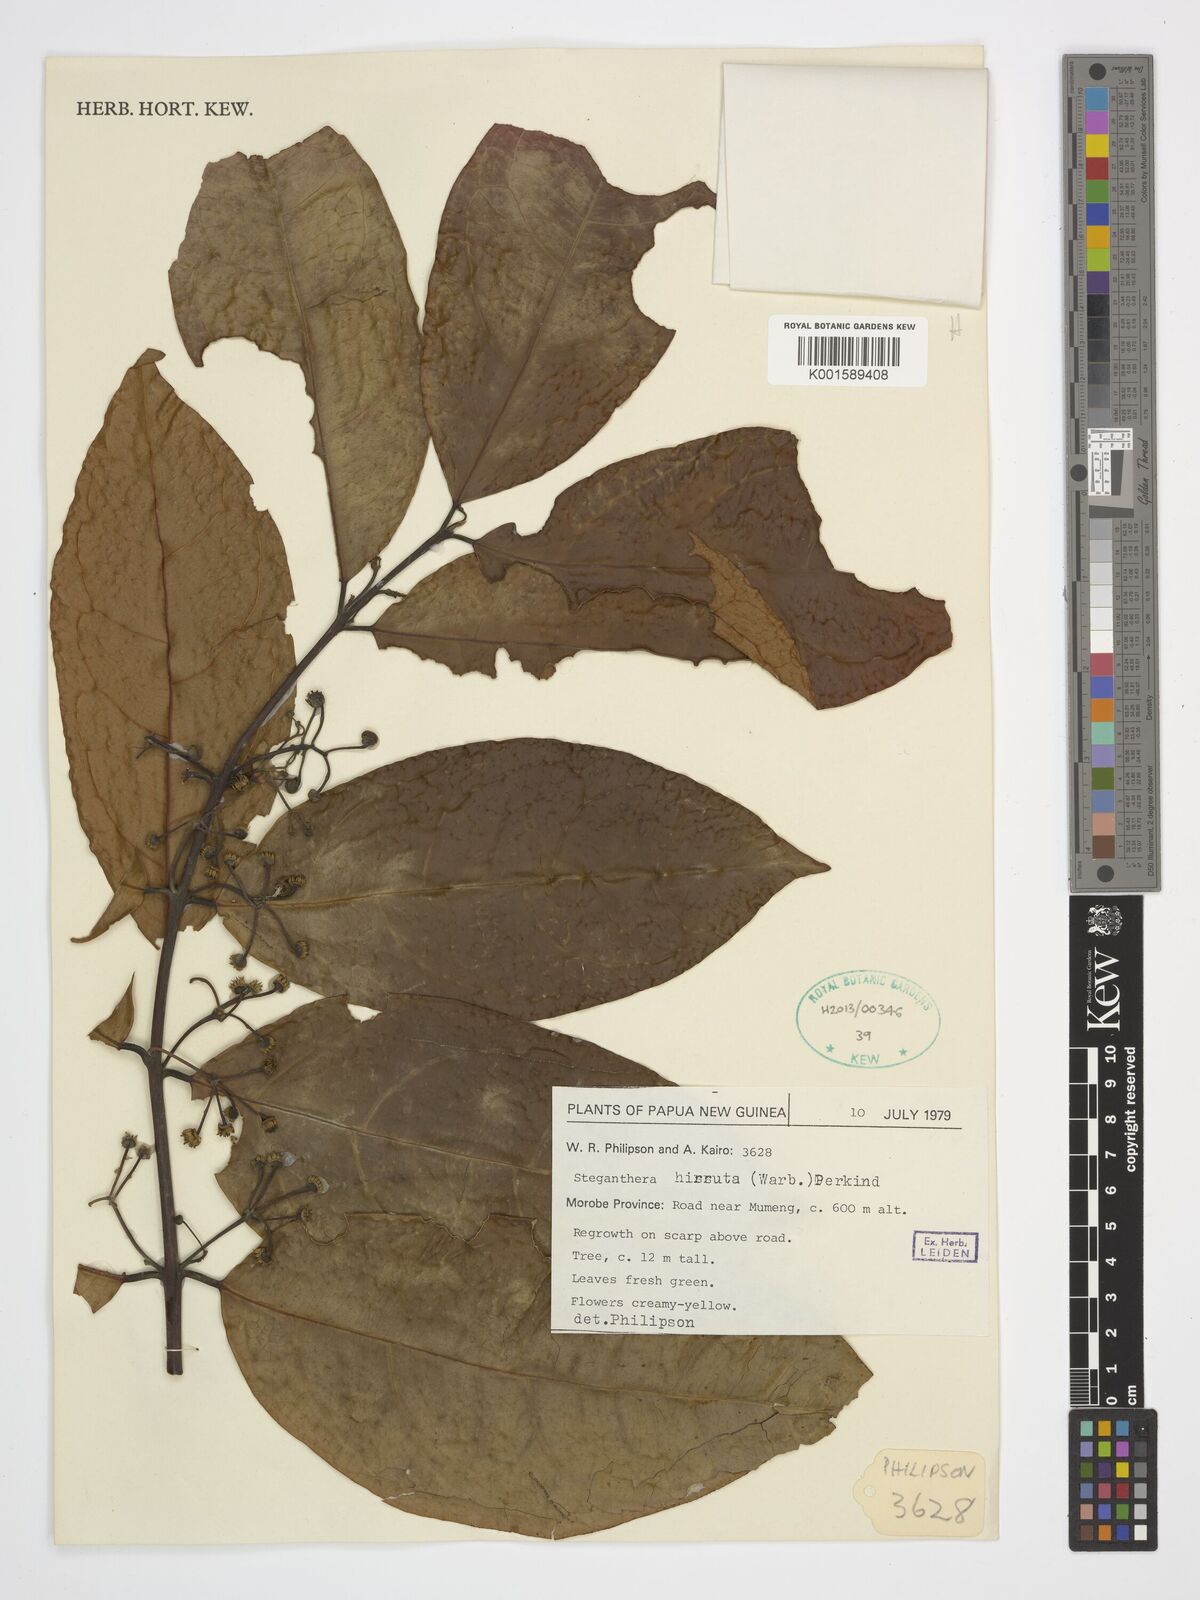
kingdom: Plantae
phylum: Tracheophyta
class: Magnoliopsida
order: Laurales
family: Monimiaceae
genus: Steganthera
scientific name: Steganthera hirsuta
